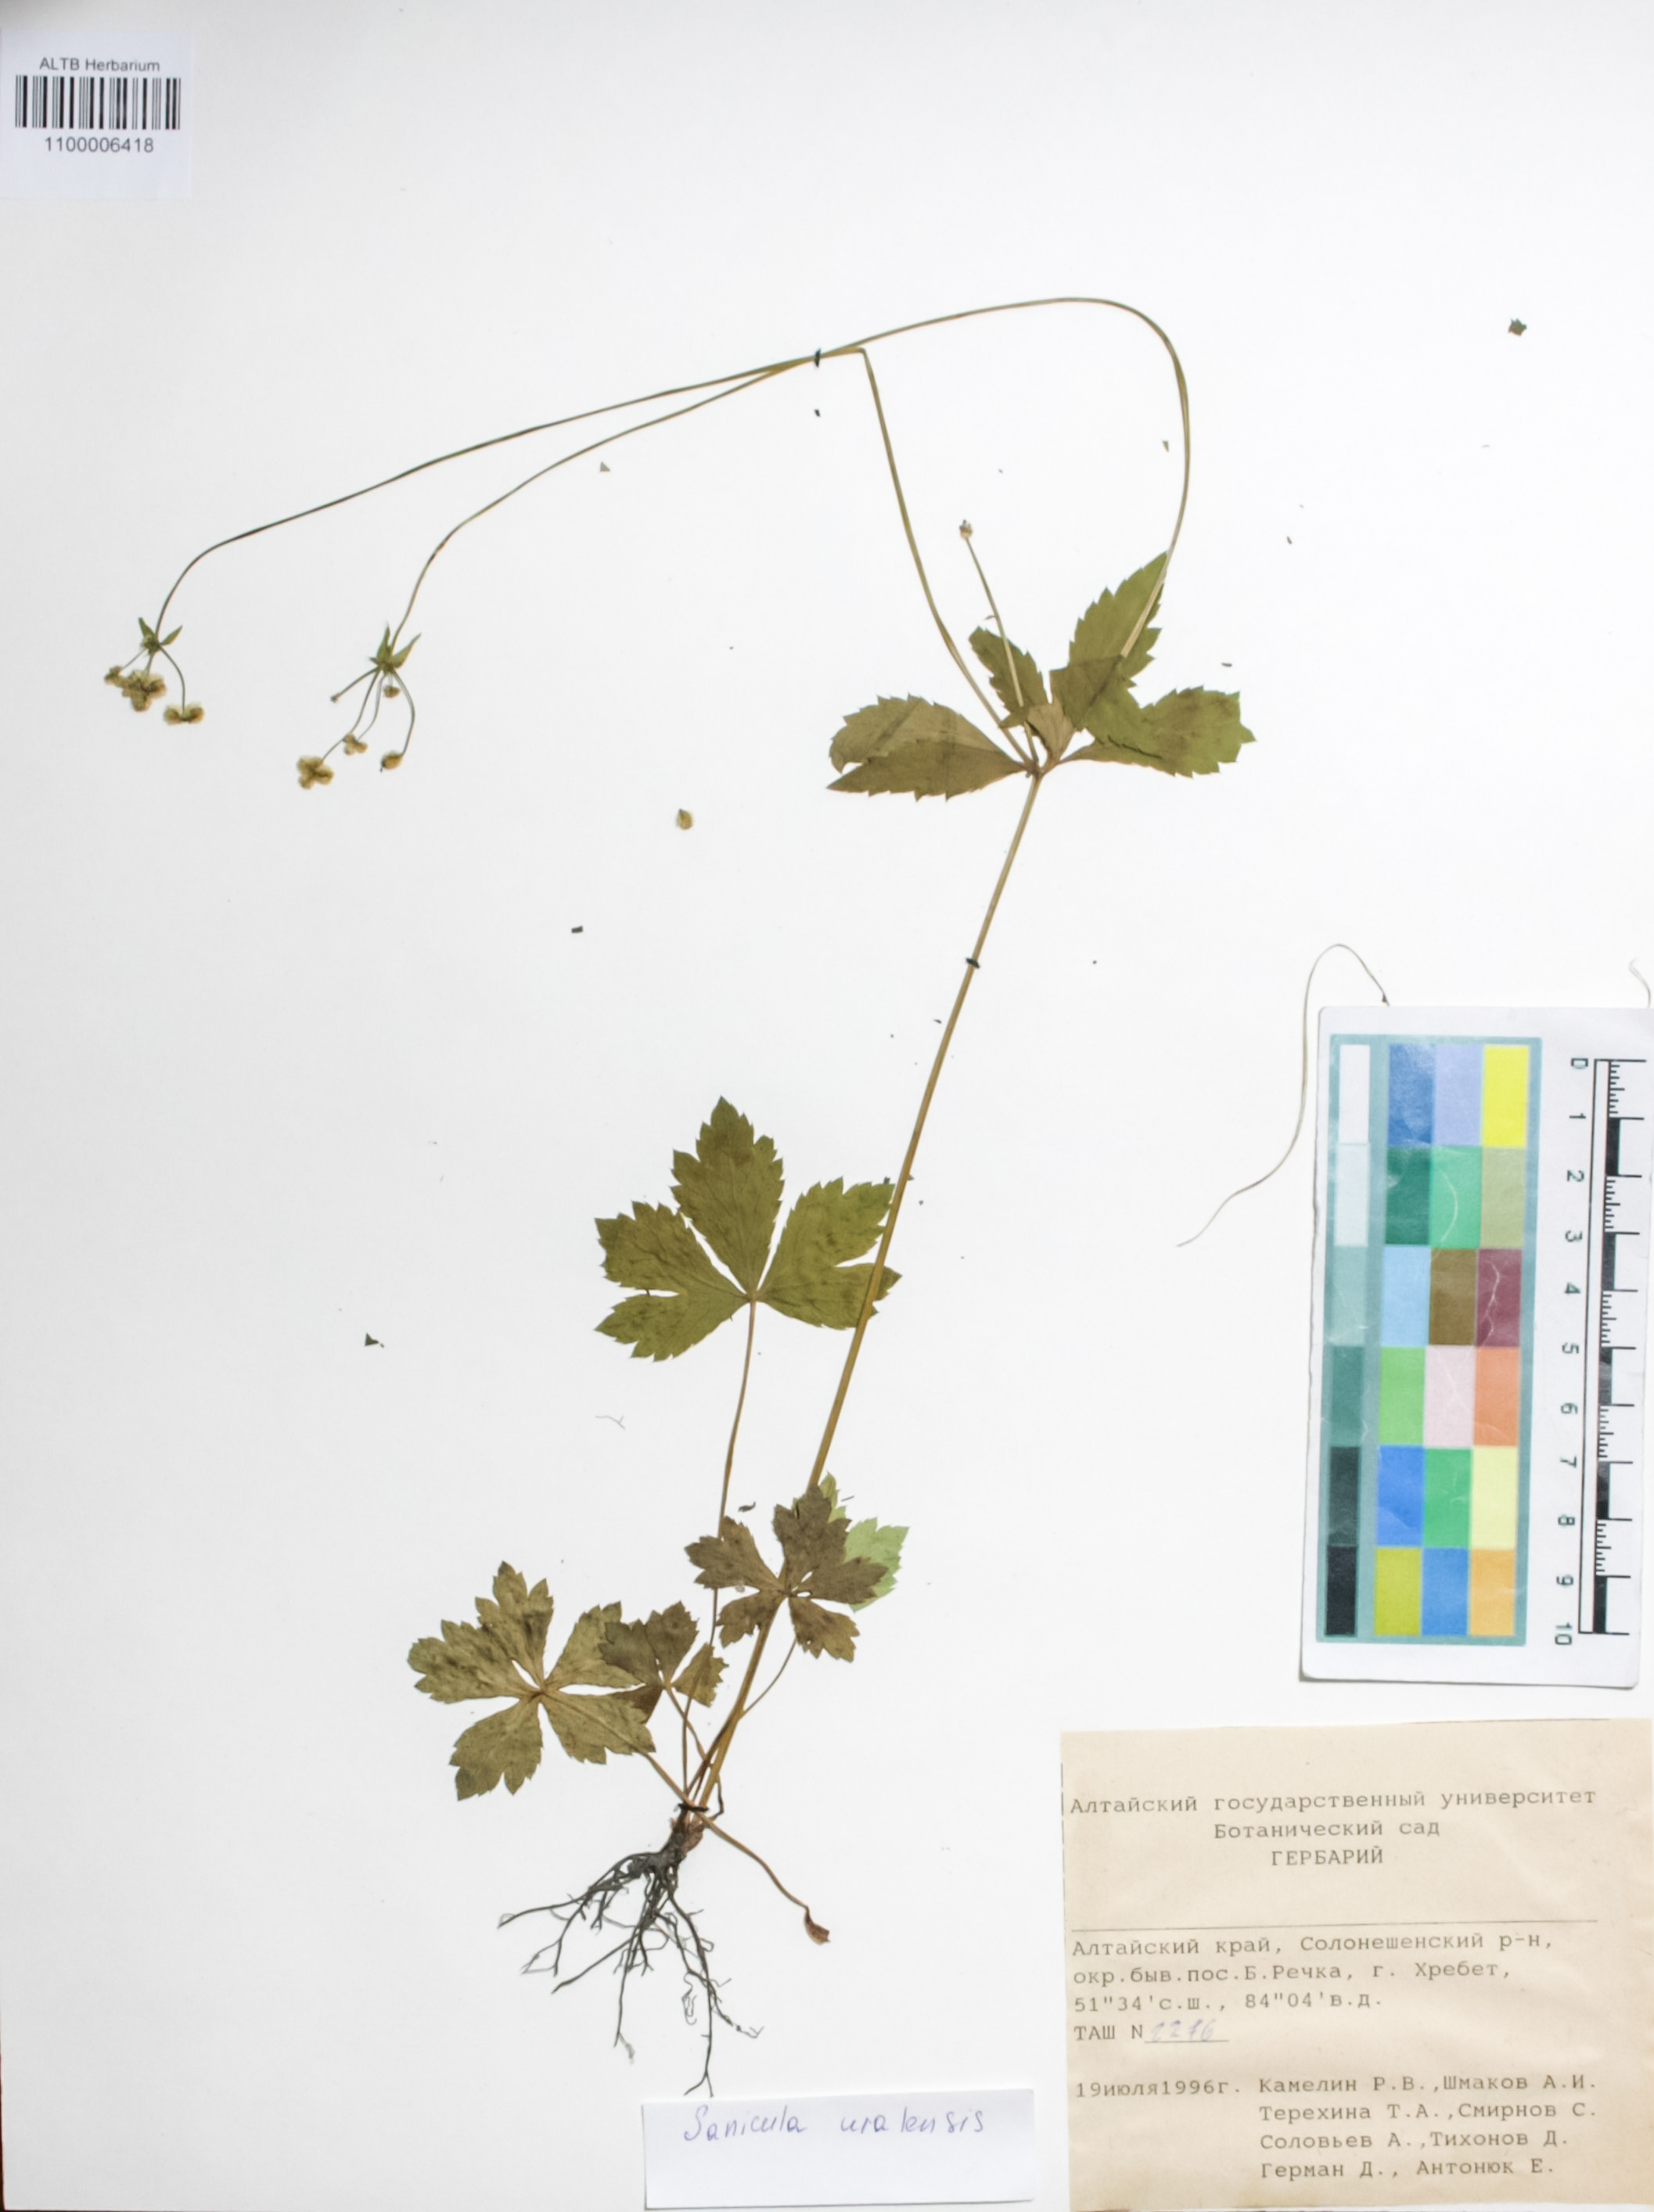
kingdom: Plantae
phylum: Tracheophyta
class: Magnoliopsida
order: Apiales
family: Apiaceae
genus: Sanicula
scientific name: Sanicula giraldii
